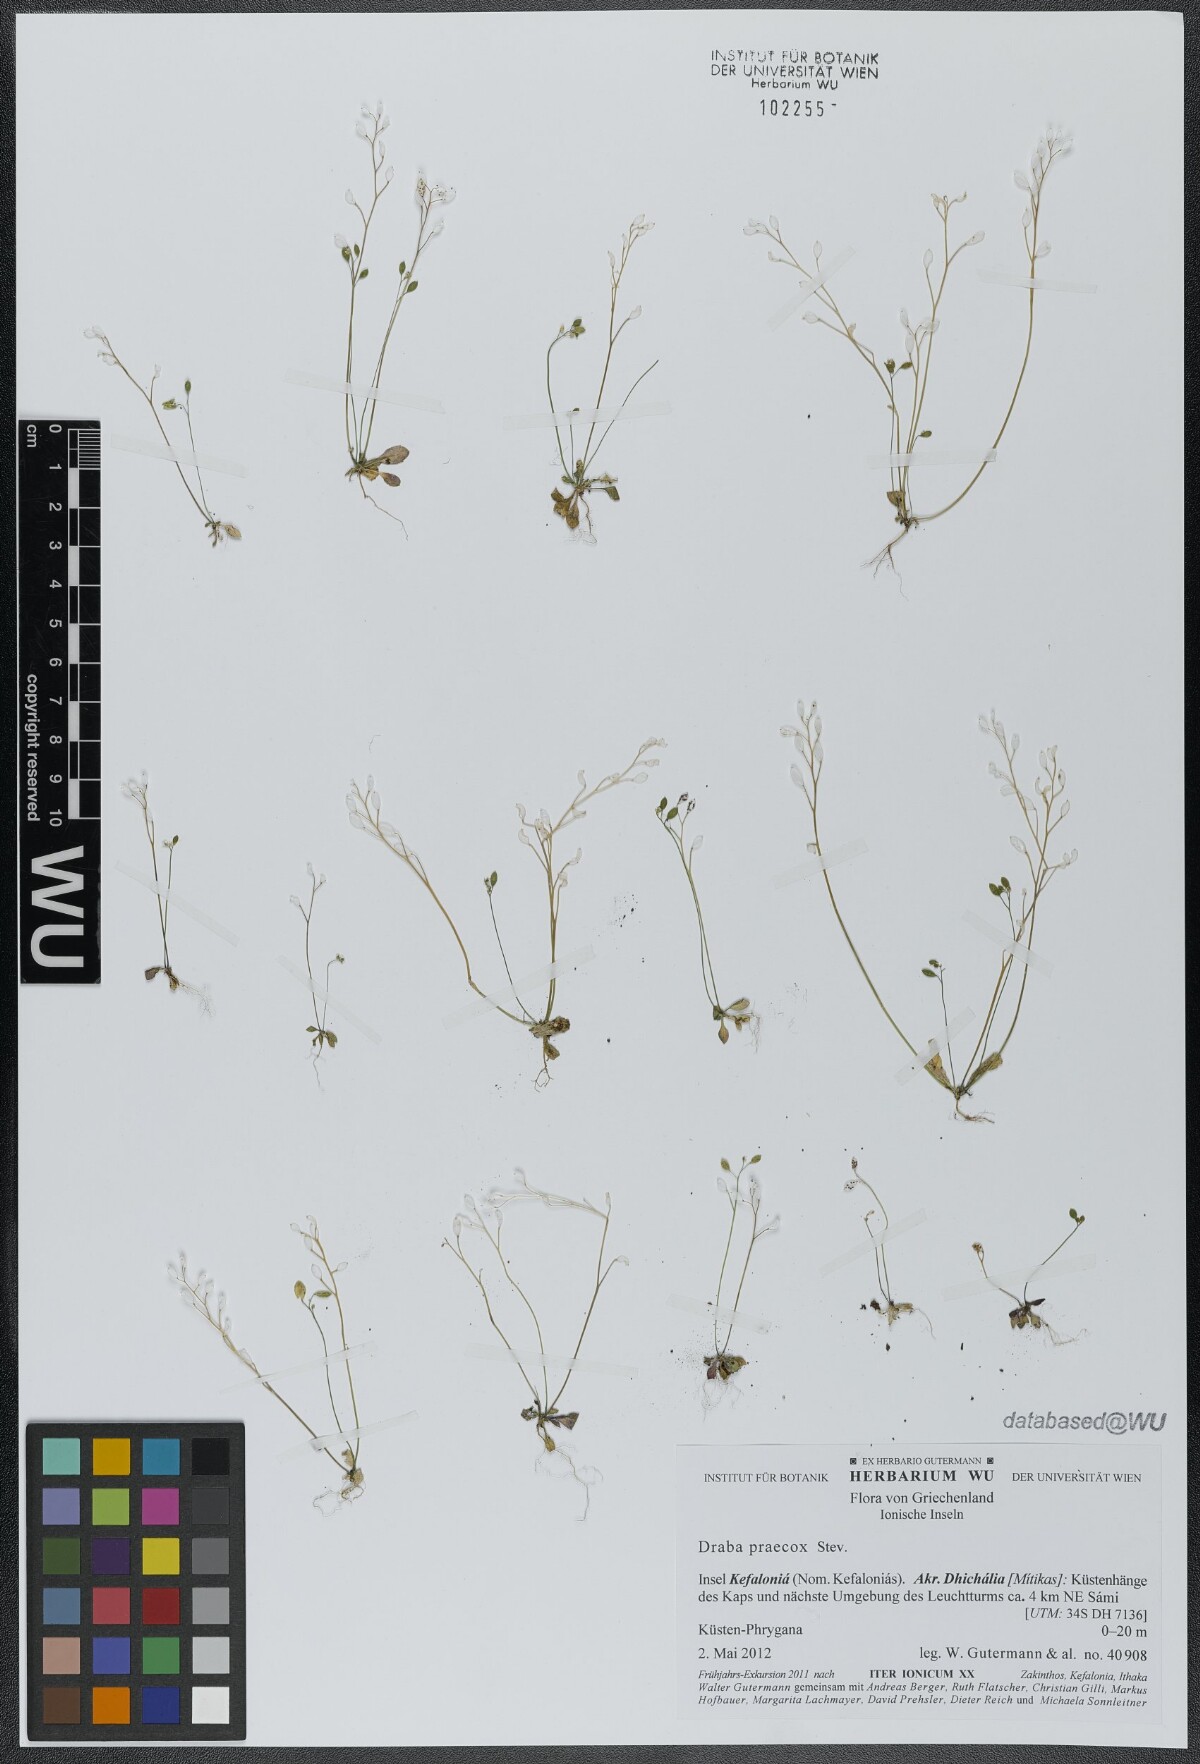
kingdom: Plantae
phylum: Tracheophyta
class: Magnoliopsida
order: Brassicales
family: Brassicaceae
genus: Draba
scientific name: Draba verna
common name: Spring draba
